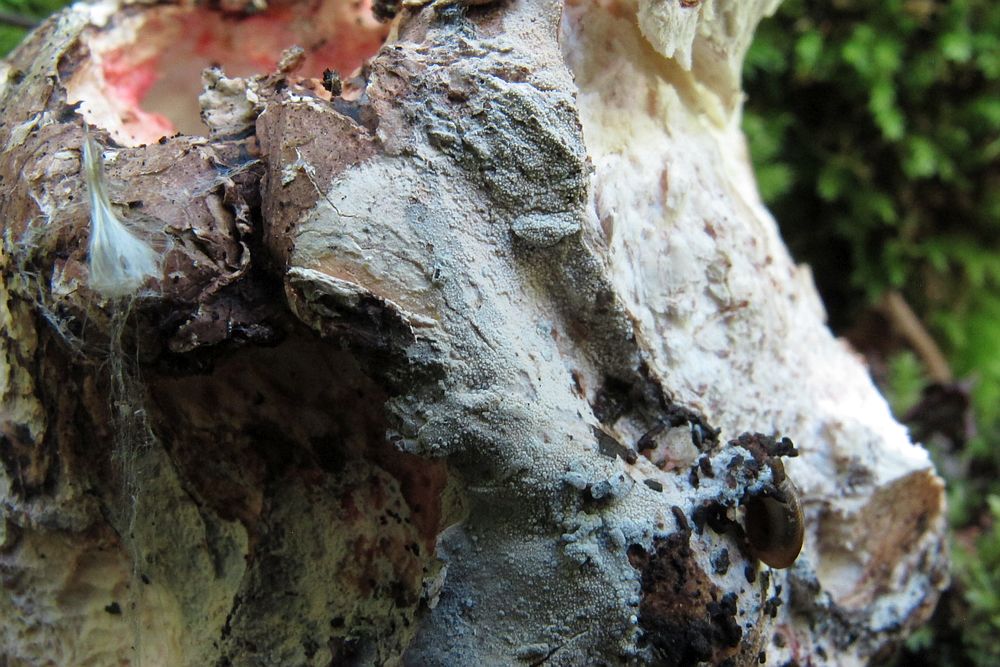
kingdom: Fungi
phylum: Basidiomycota
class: Agaricomycetes
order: Cantharellales
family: Hydnaceae
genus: Sistotrema
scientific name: Sistotrema brinkmannii
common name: bønnesporet kroneskorpe
